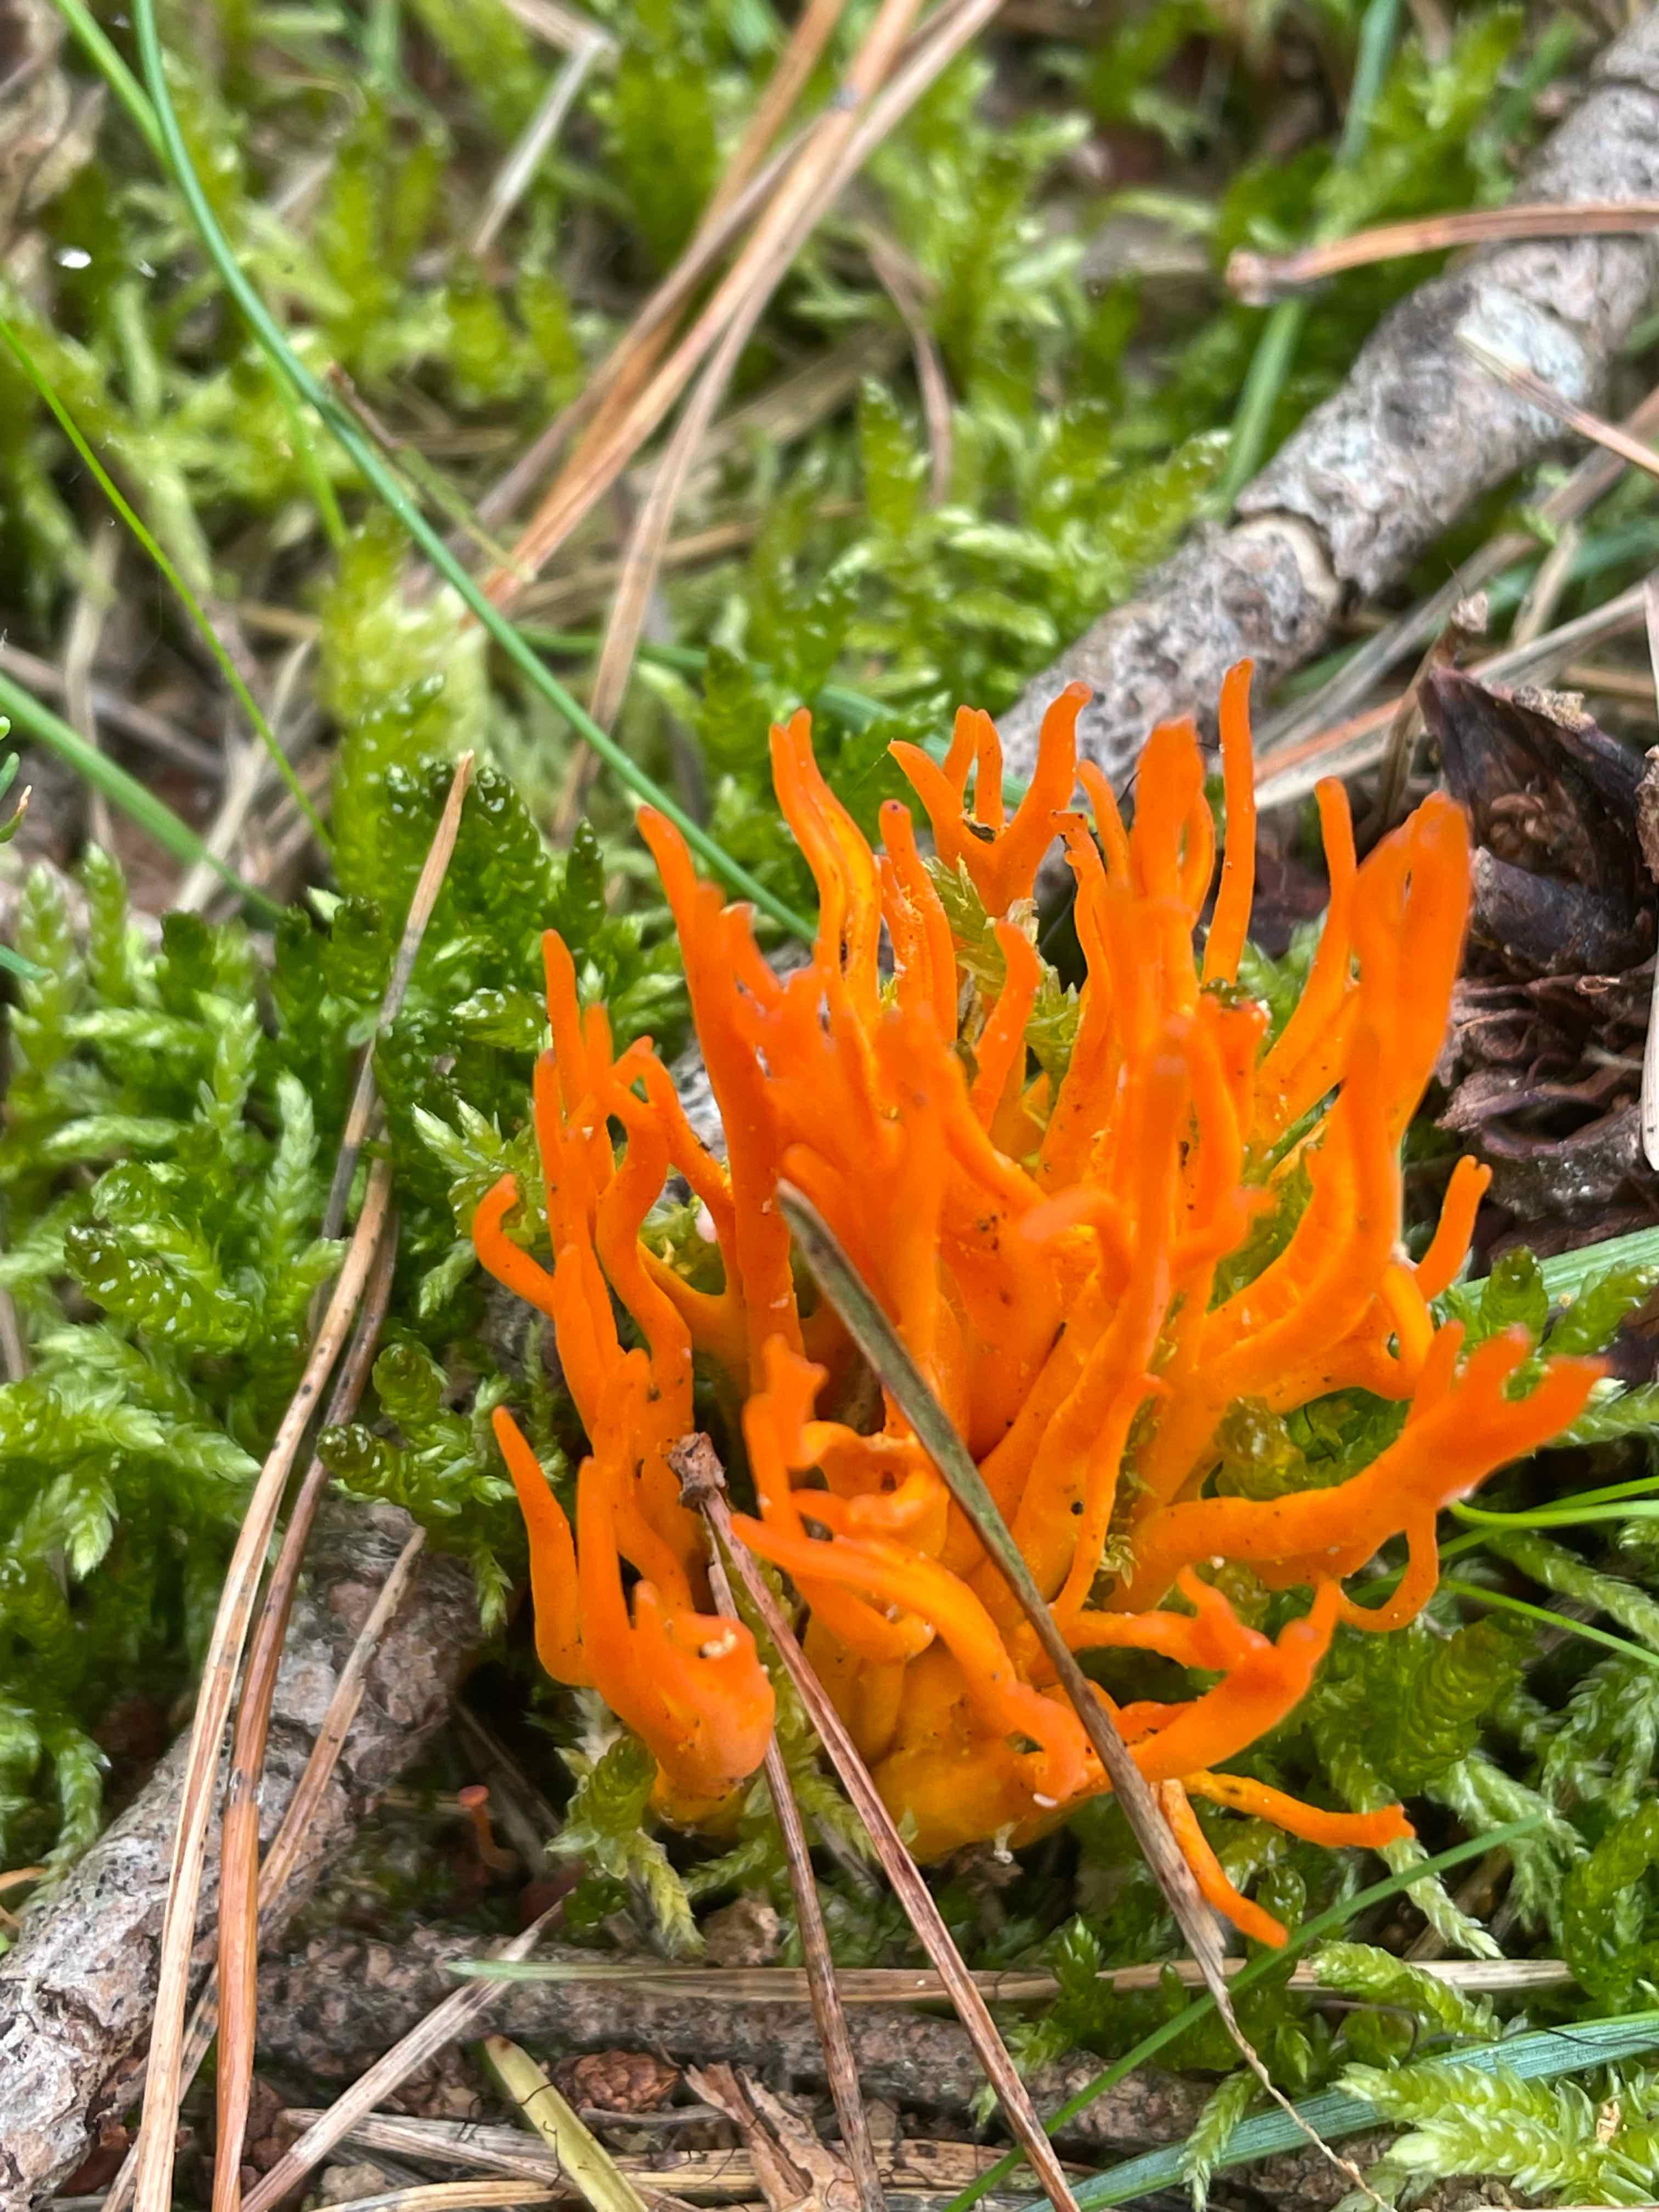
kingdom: Fungi
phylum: Basidiomycota
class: Dacrymycetes
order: Dacrymycetales
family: Dacrymycetaceae
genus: Calocera
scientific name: Calocera viscosa
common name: almindelig guldgaffel
